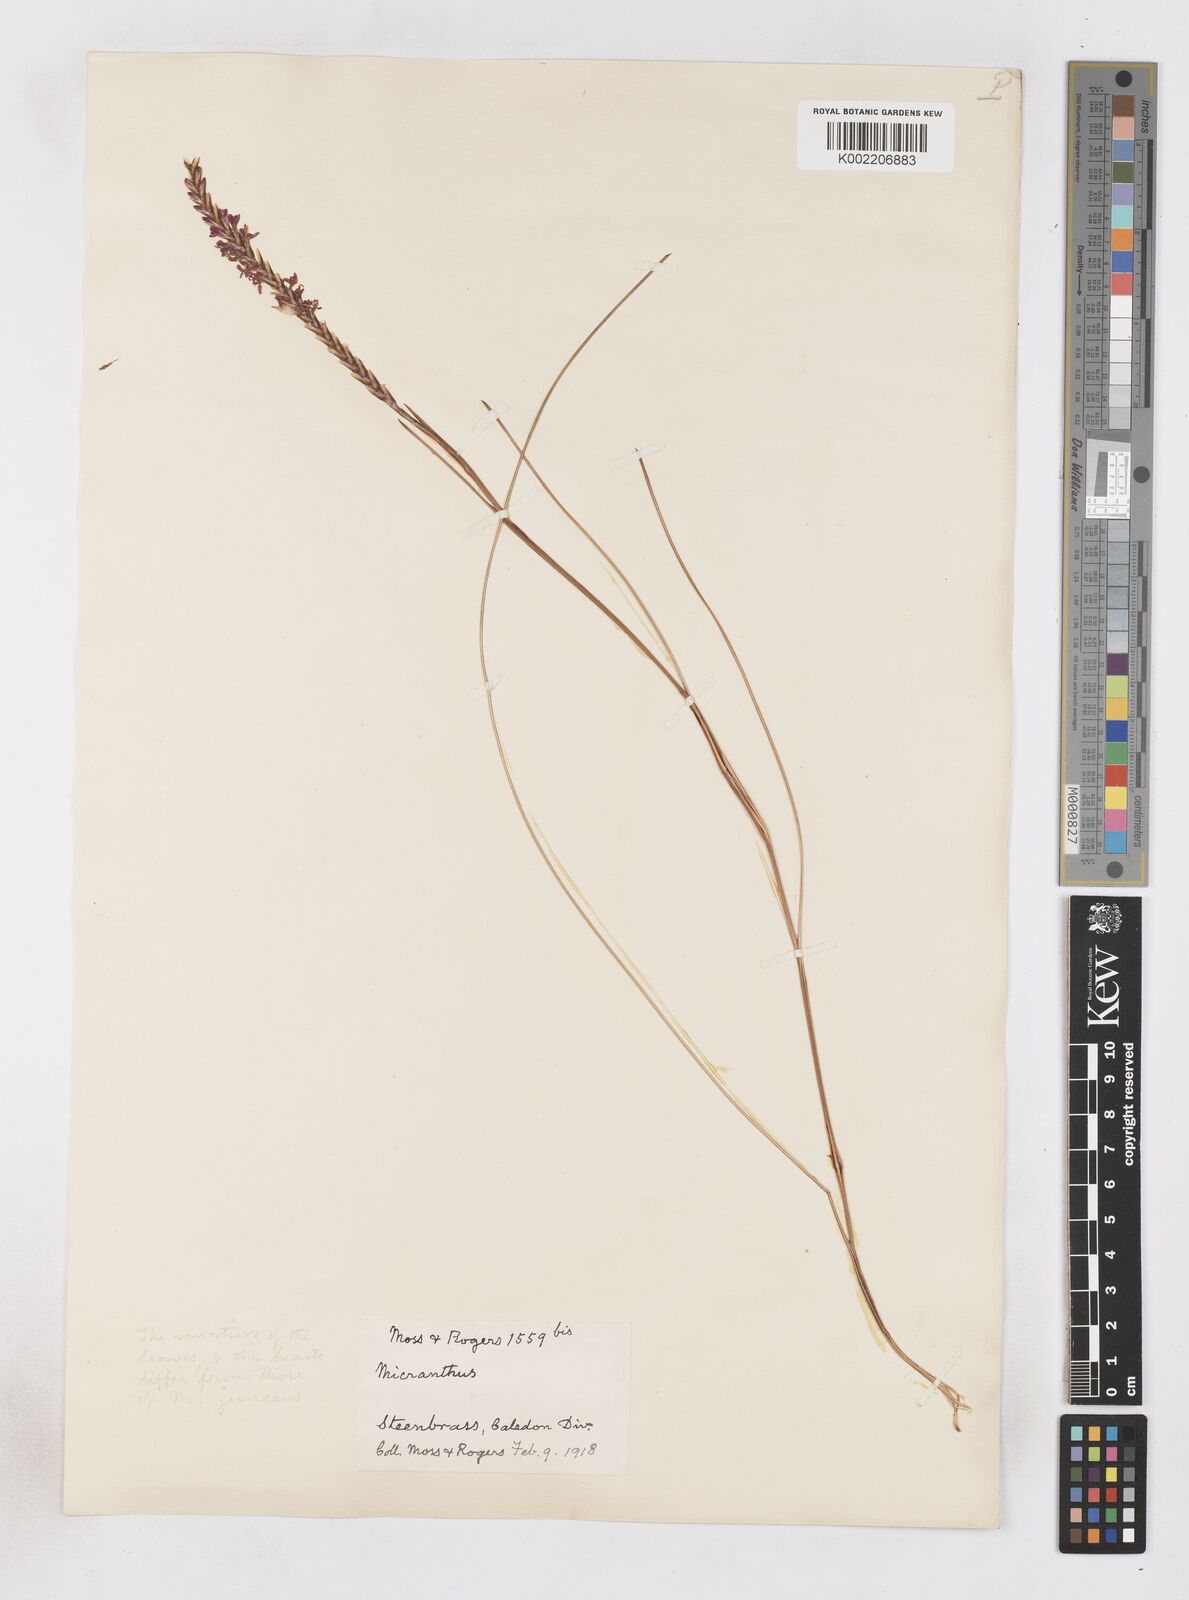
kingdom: Plantae
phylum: Tracheophyta
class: Liliopsida
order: Asparagales
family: Iridaceae
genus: Micranthus
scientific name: Micranthus plantagineus
